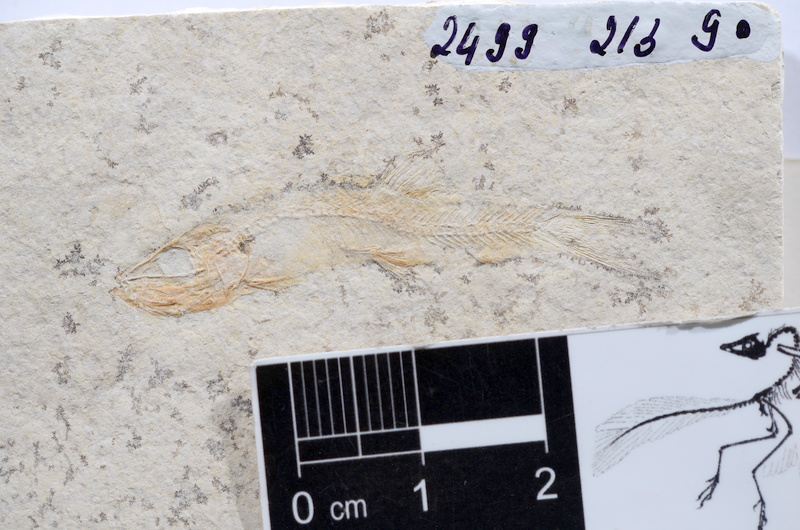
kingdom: Animalia
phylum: Chordata
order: Salmoniformes
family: Orthogonikleithridae
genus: Leptolepides
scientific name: Leptolepides sprattiformis
